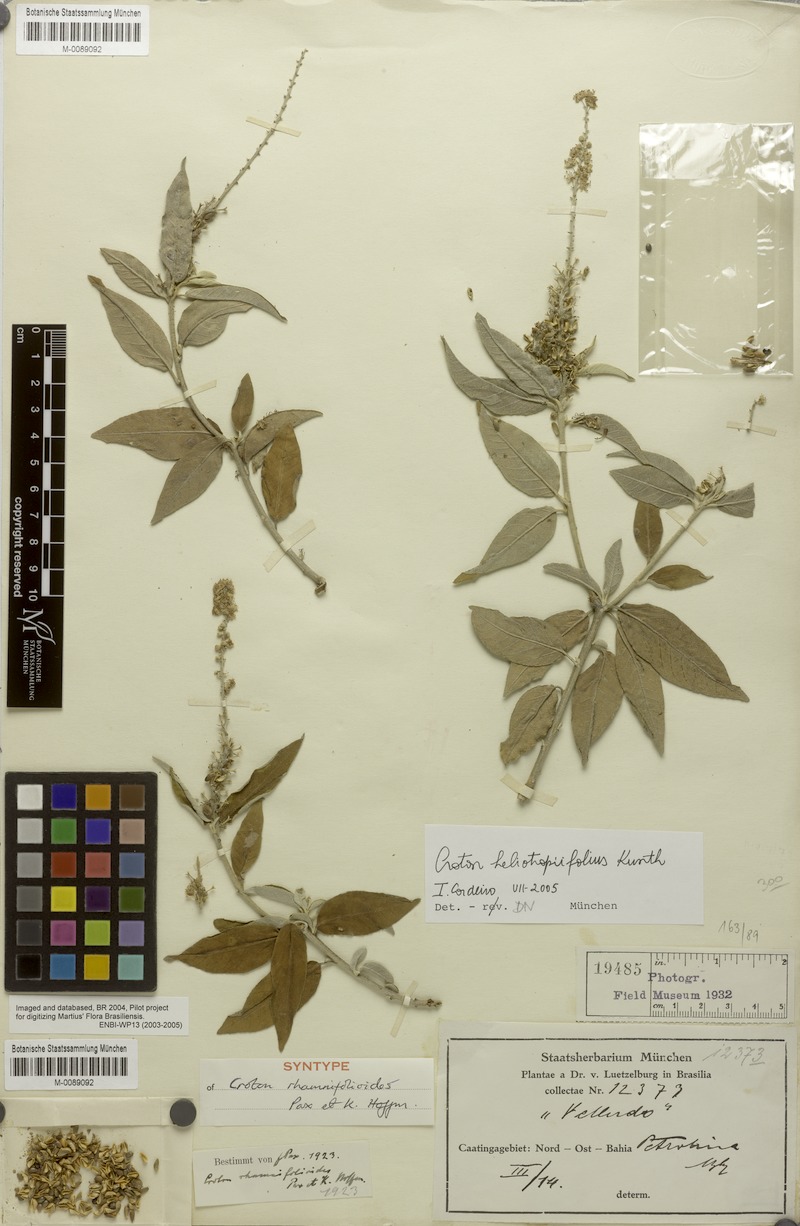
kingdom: Plantae
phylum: Tracheophyta
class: Magnoliopsida
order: Malpighiales
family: Euphorbiaceae
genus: Croton
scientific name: Croton heliotropiifolius
